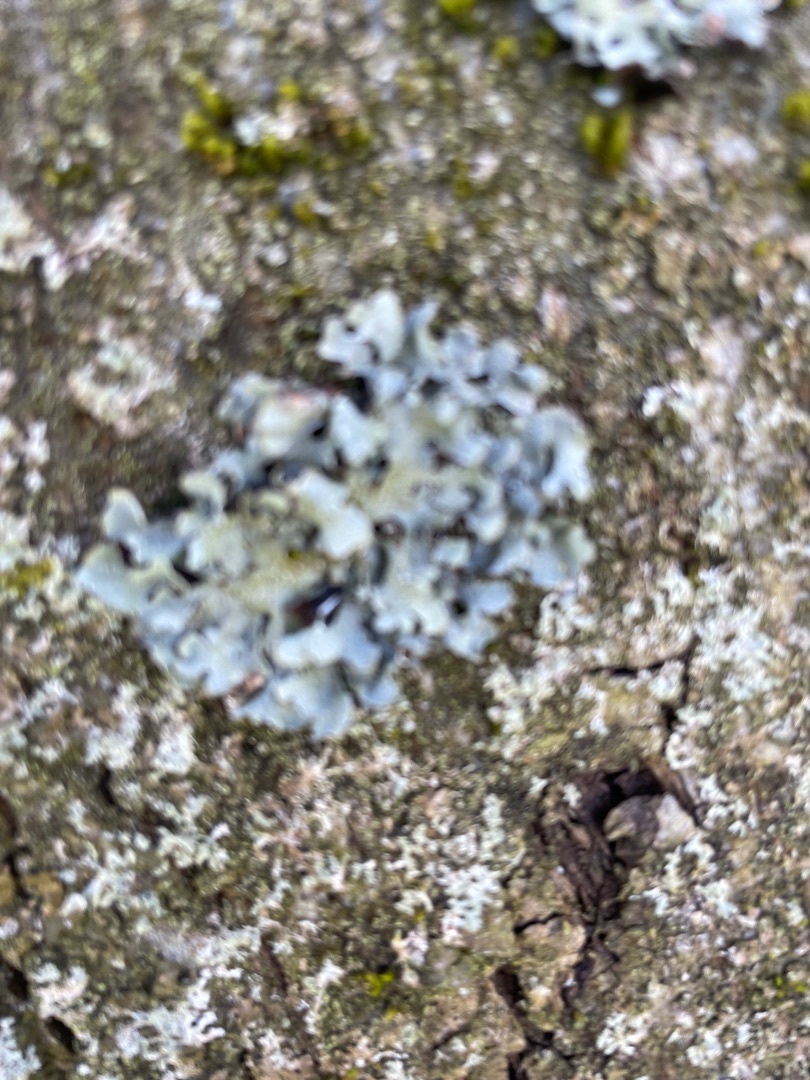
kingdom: Fungi
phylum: Ascomycota
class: Lecanoromycetes
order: Lecanorales
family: Parmeliaceae
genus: Parmelia
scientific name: Parmelia sulcata
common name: Rynket skållav
